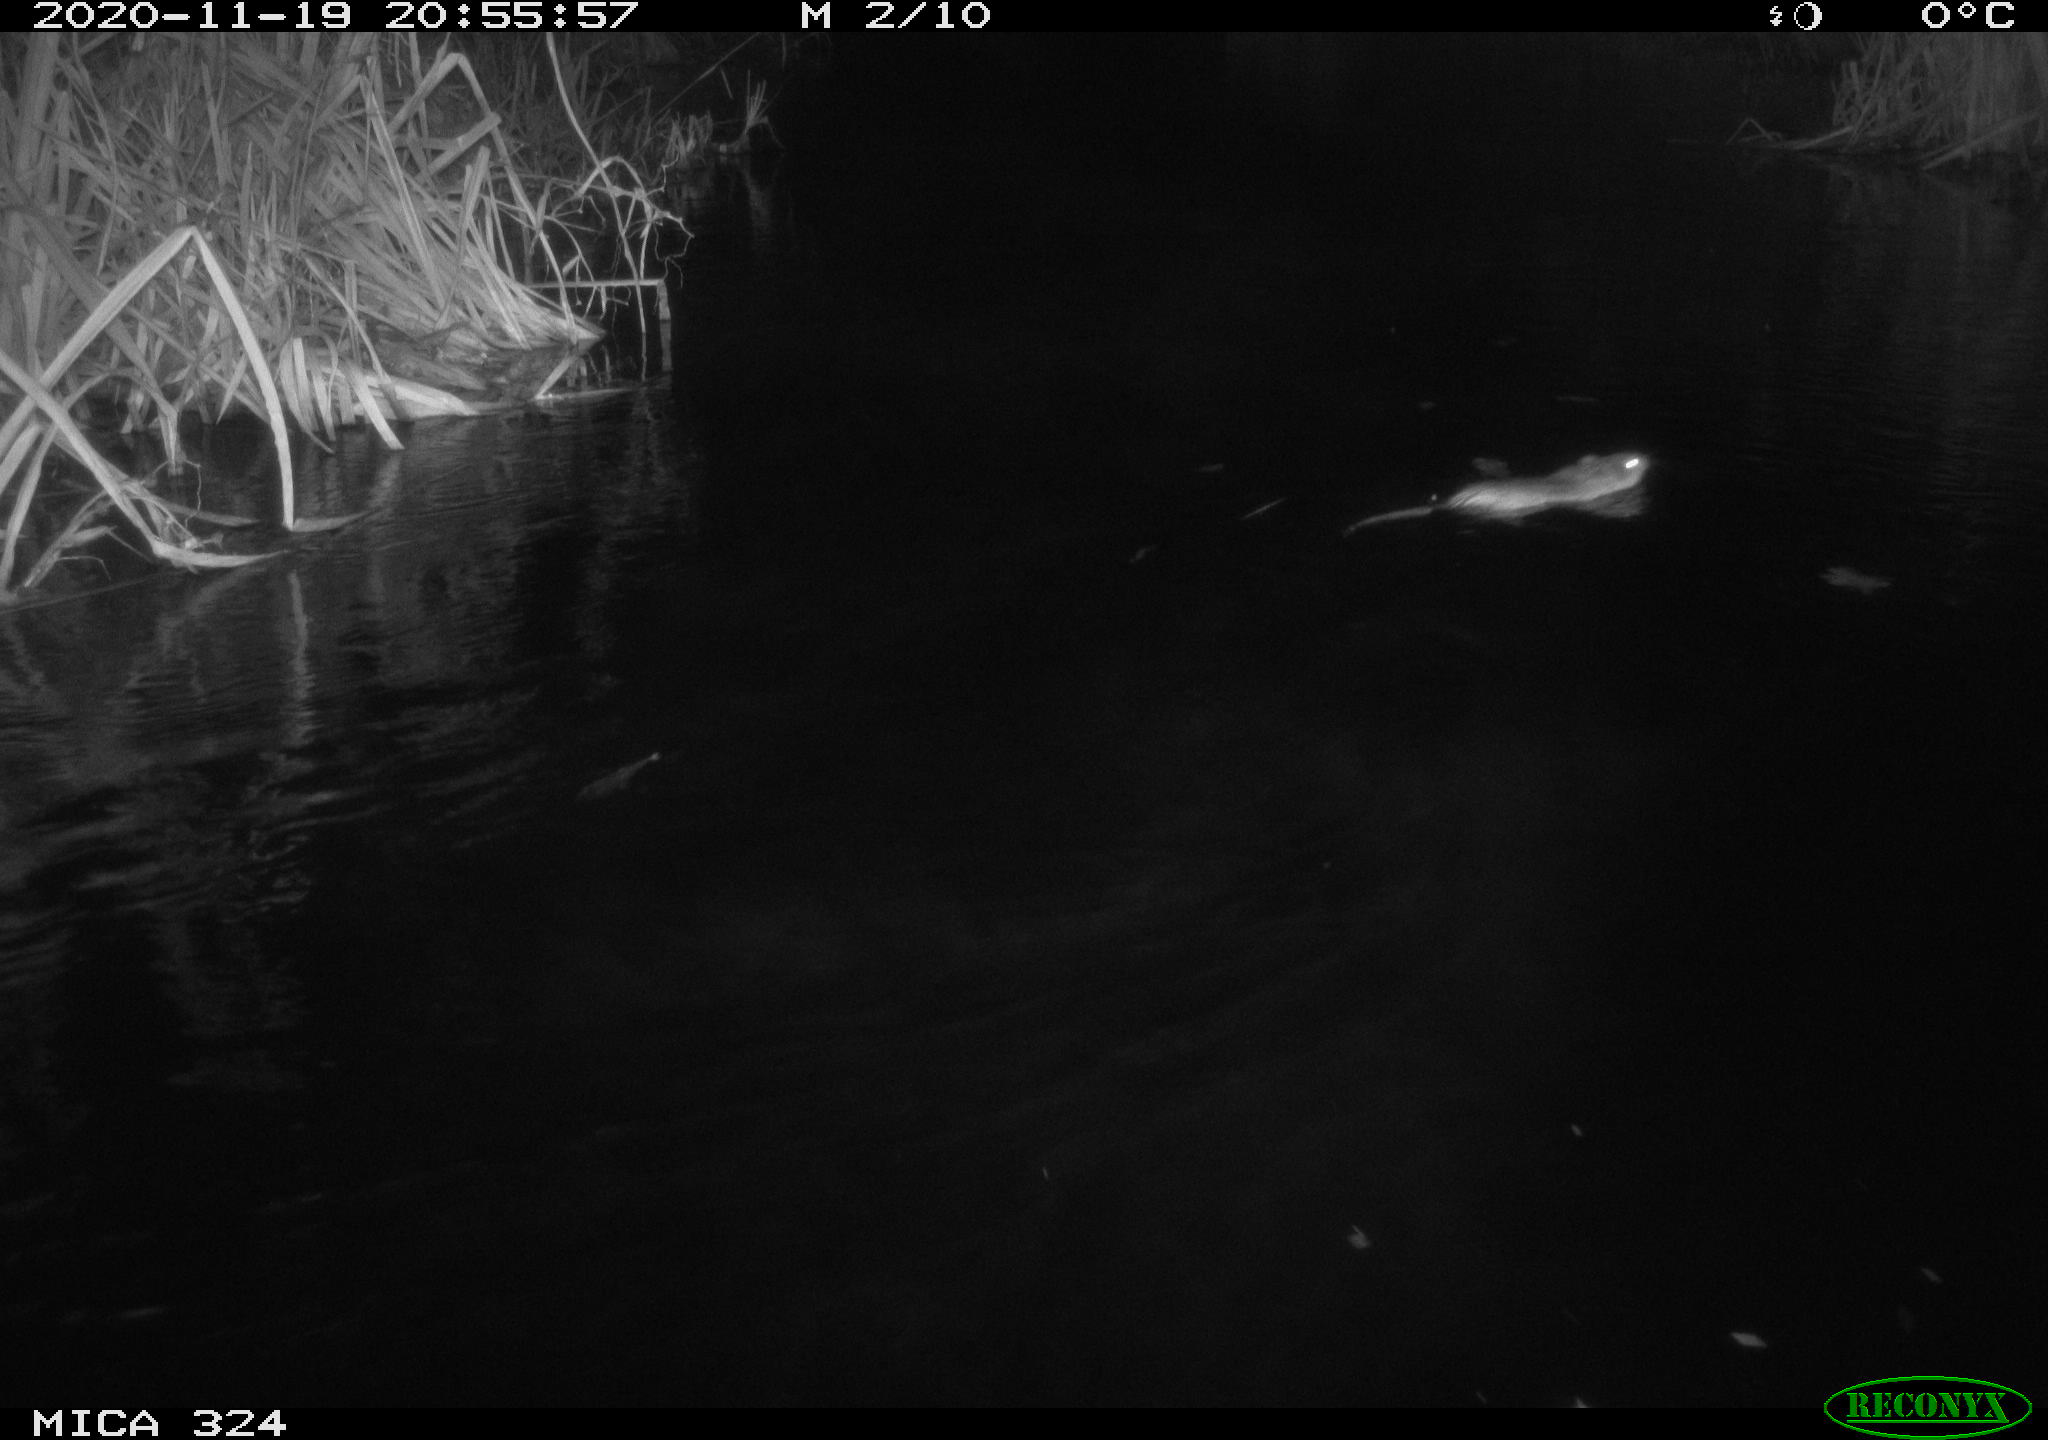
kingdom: Animalia
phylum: Chordata
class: Mammalia
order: Rodentia
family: Cricetidae
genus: Ondatra
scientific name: Ondatra zibethicus
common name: Muskrat
